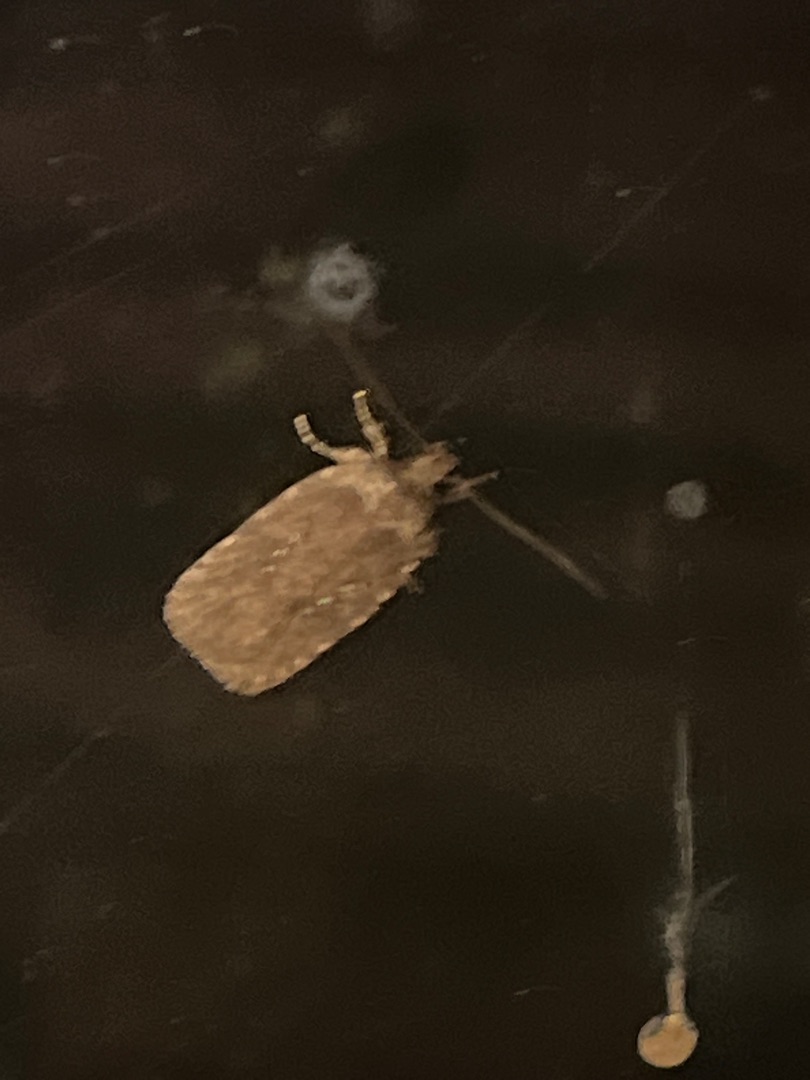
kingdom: Animalia
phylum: Arthropoda
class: Insecta
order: Lepidoptera
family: Depressariidae
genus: Agonopterix
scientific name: Agonopterix heracliana
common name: Almindelig fladmøl
